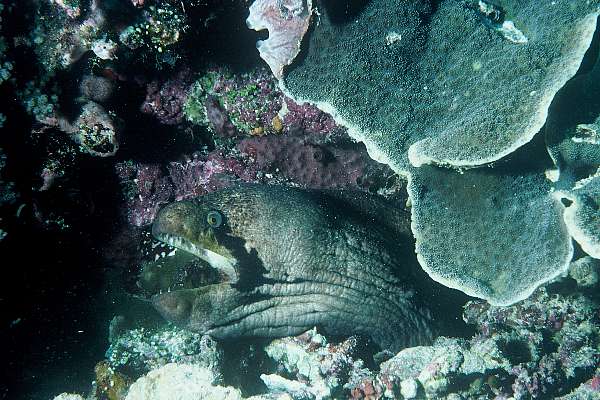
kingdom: Animalia
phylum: Chordata
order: Anguilliformes
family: Muraenidae
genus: Gymnothorax
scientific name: Gymnothorax breedeni
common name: Blackcheek moray
